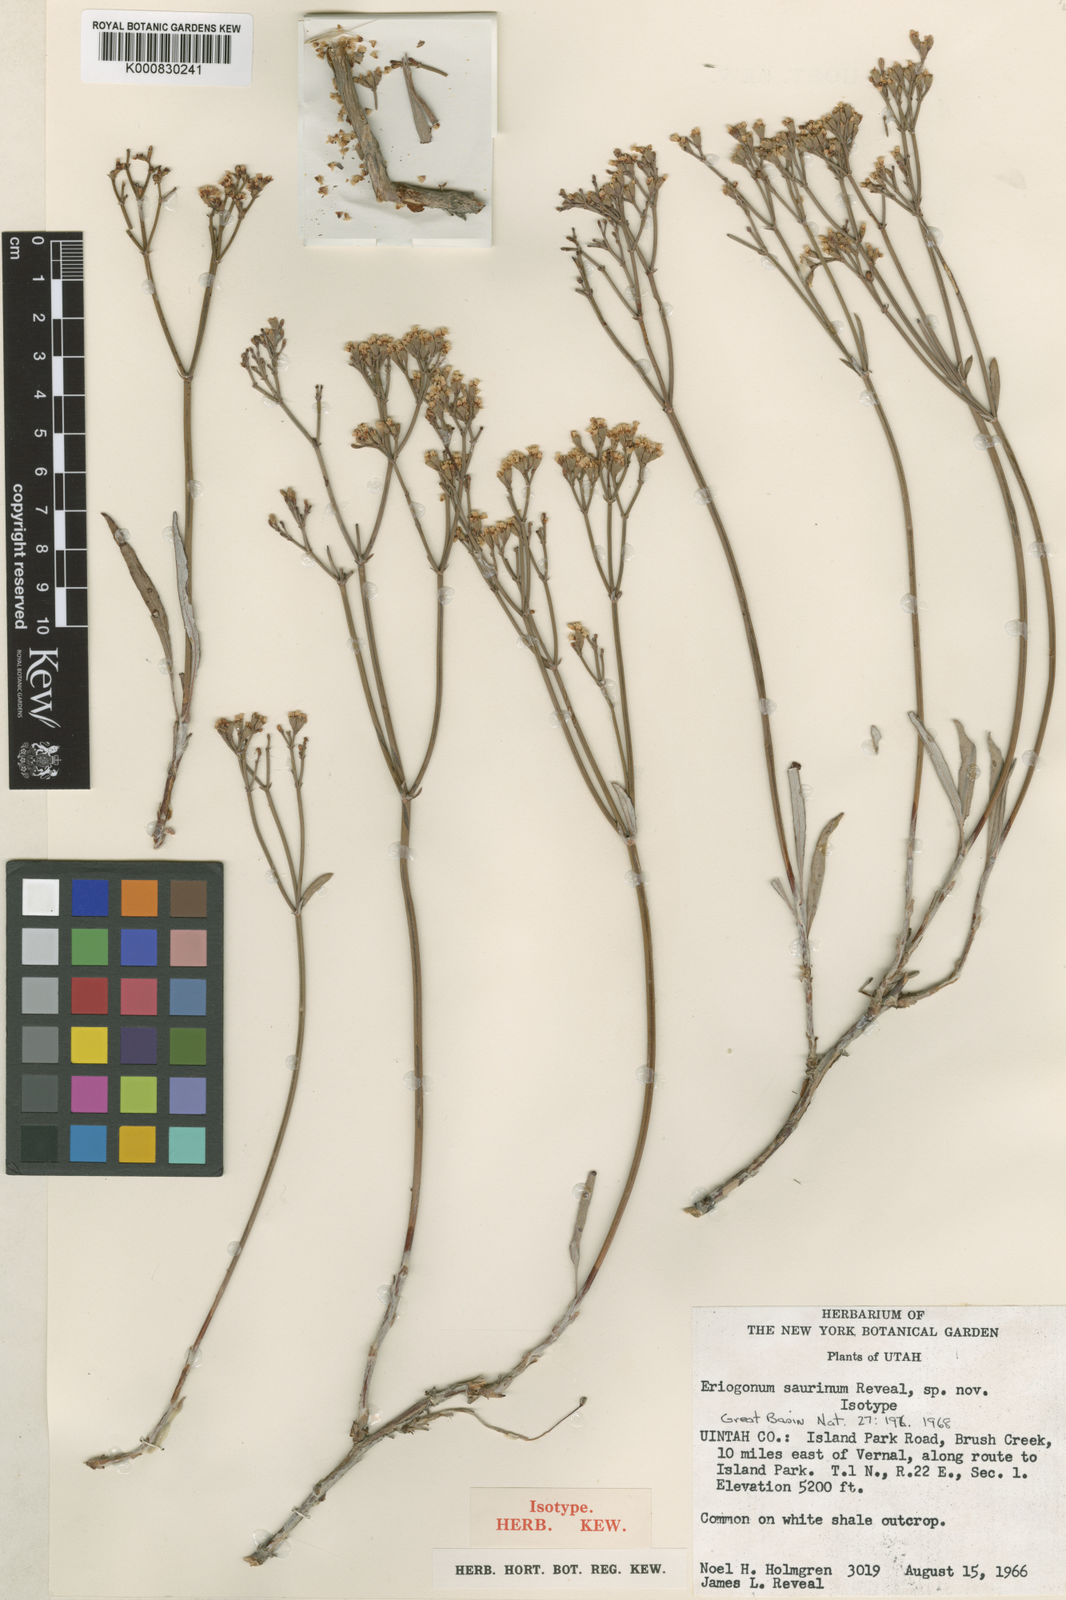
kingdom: Plantae
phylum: Tracheophyta
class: Magnoliopsida
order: Caryophyllales
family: Polygonaceae
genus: Eriogonum
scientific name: Eriogonum lonchophyllum
